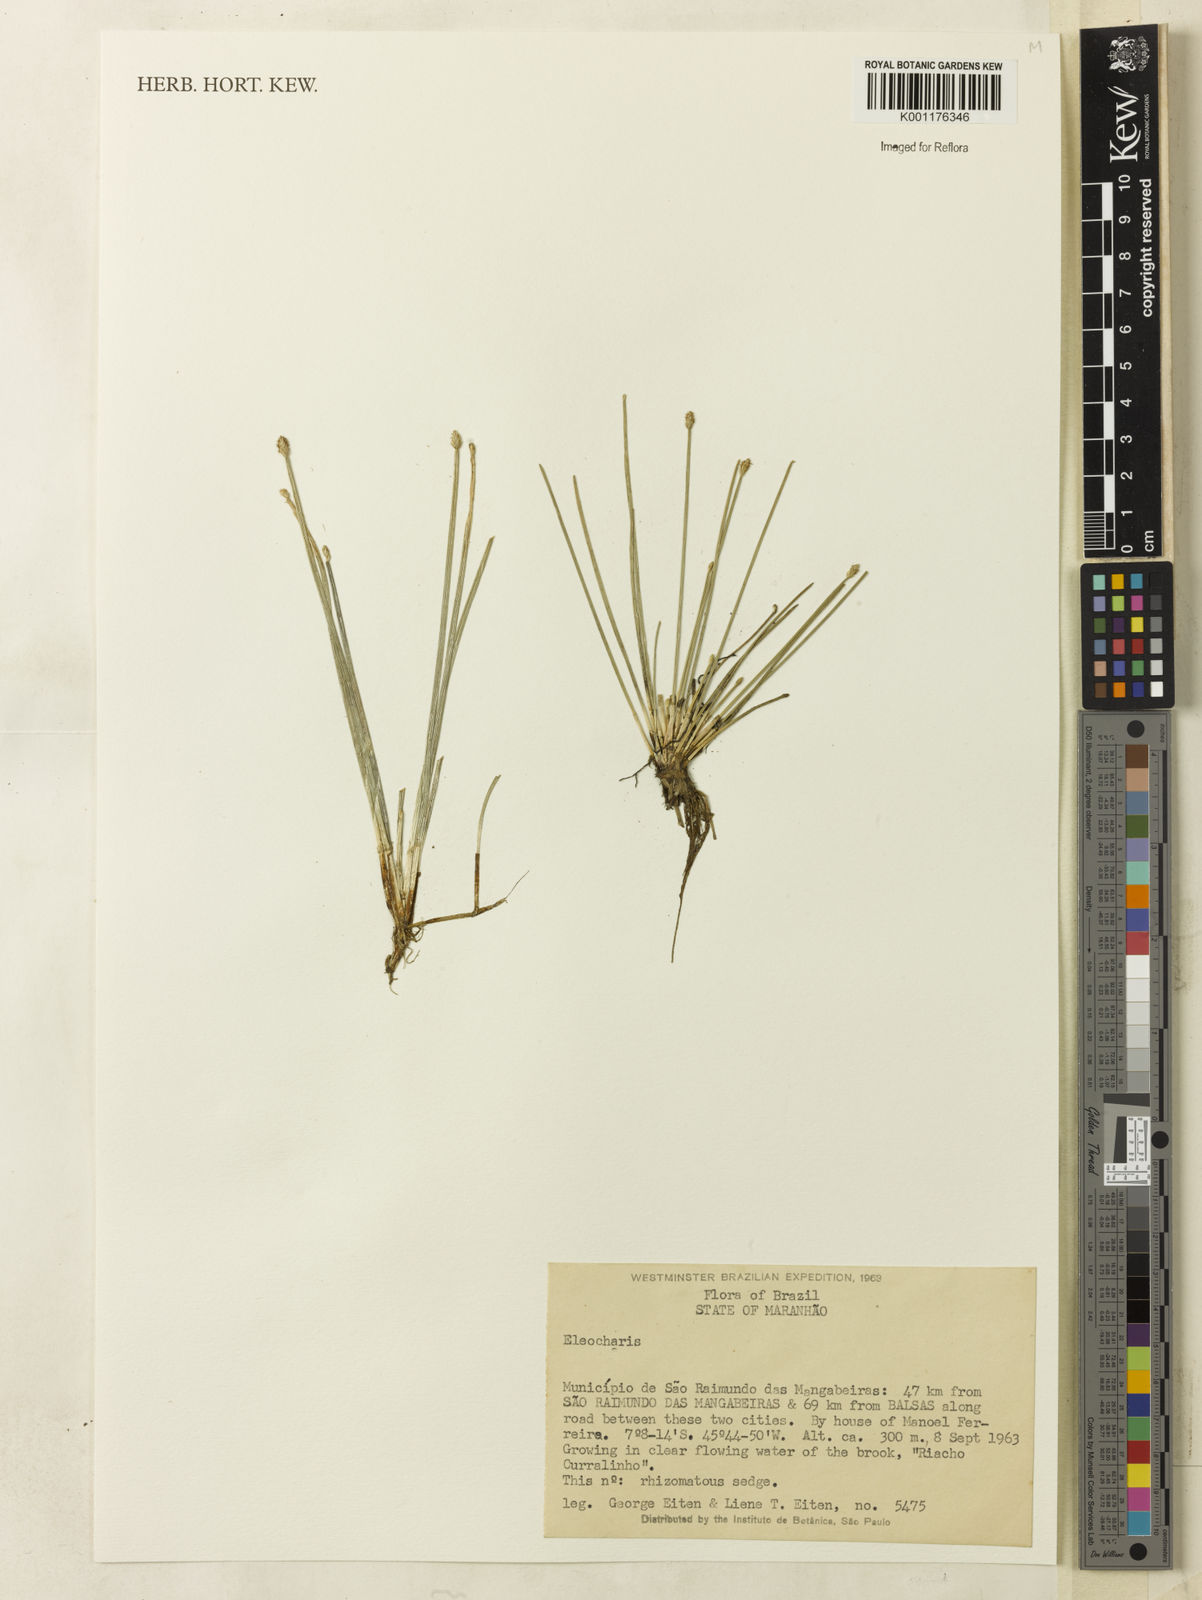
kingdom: Plantae
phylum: Tracheophyta
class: Liliopsida
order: Poales
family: Cyperaceae
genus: Eleocharis
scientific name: Eleocharis
